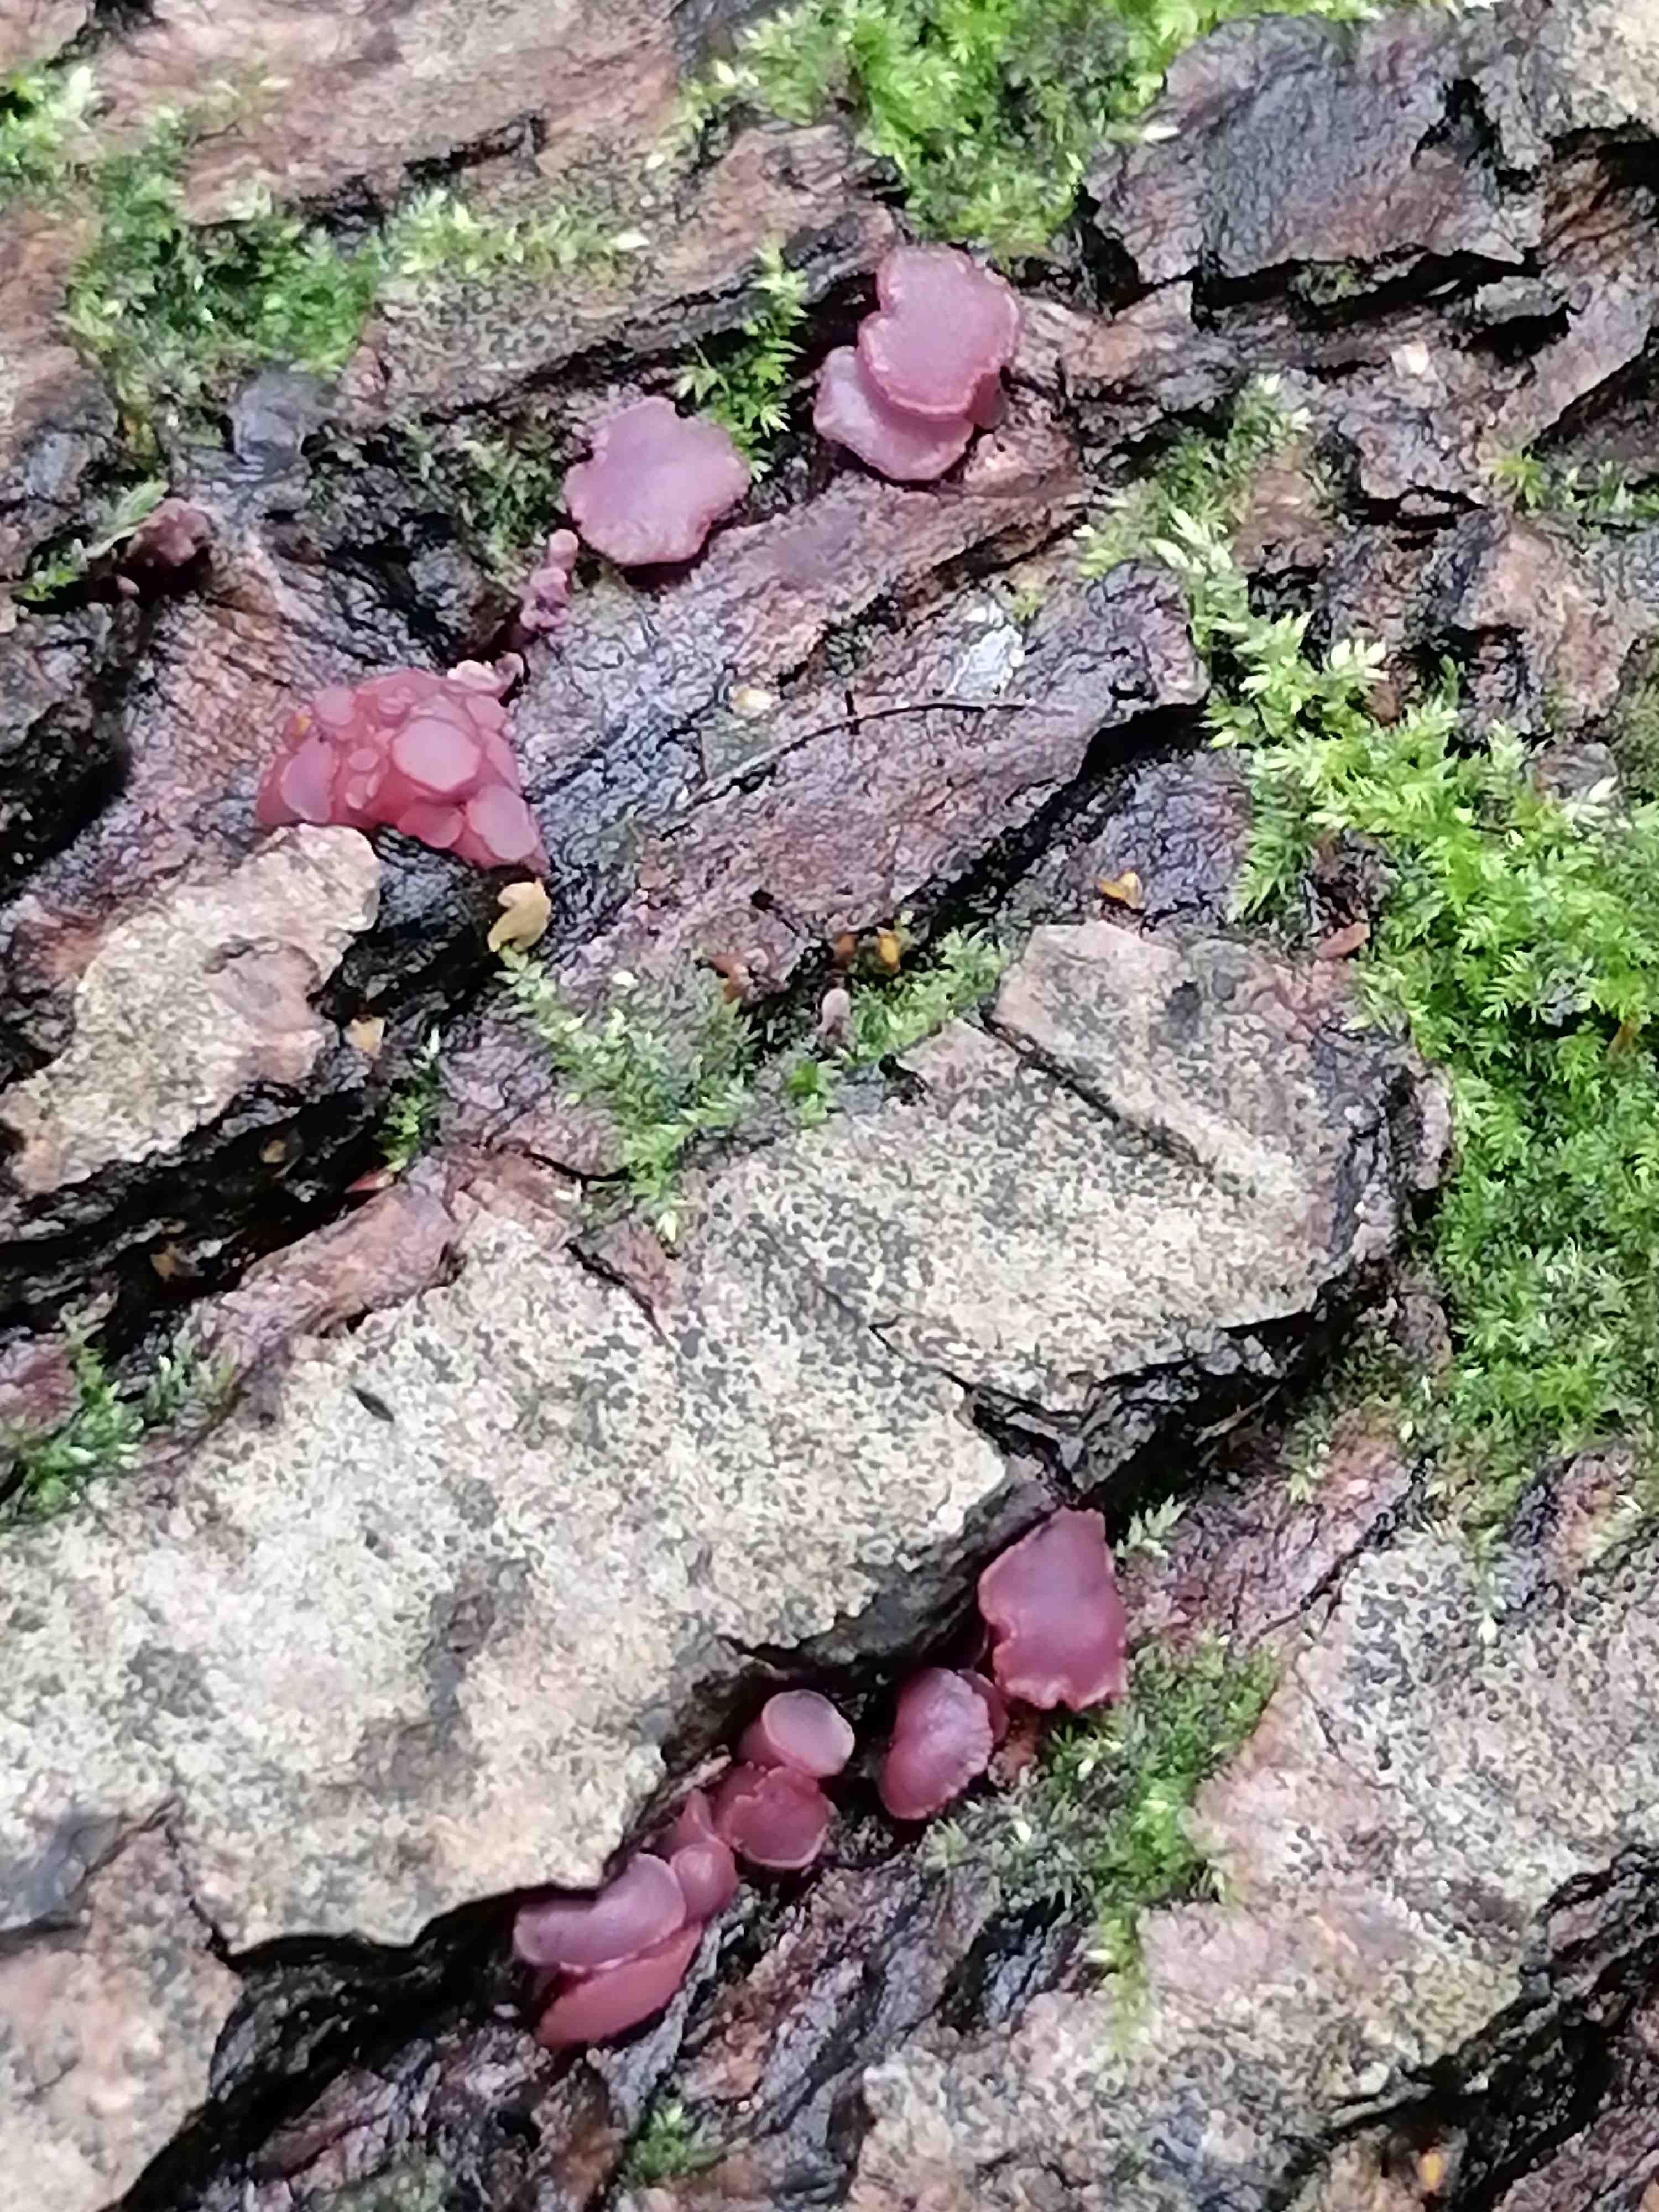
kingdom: Fungi
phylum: Ascomycota
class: Leotiomycetes
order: Helotiales
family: Gelatinodiscaceae
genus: Ascocoryne
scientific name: Ascocoryne cylichnium
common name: stor sejskive
